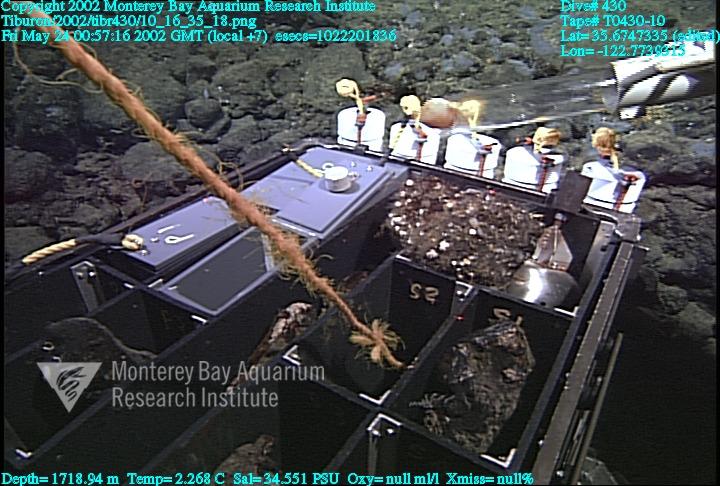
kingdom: Animalia
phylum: Porifera
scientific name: Porifera
